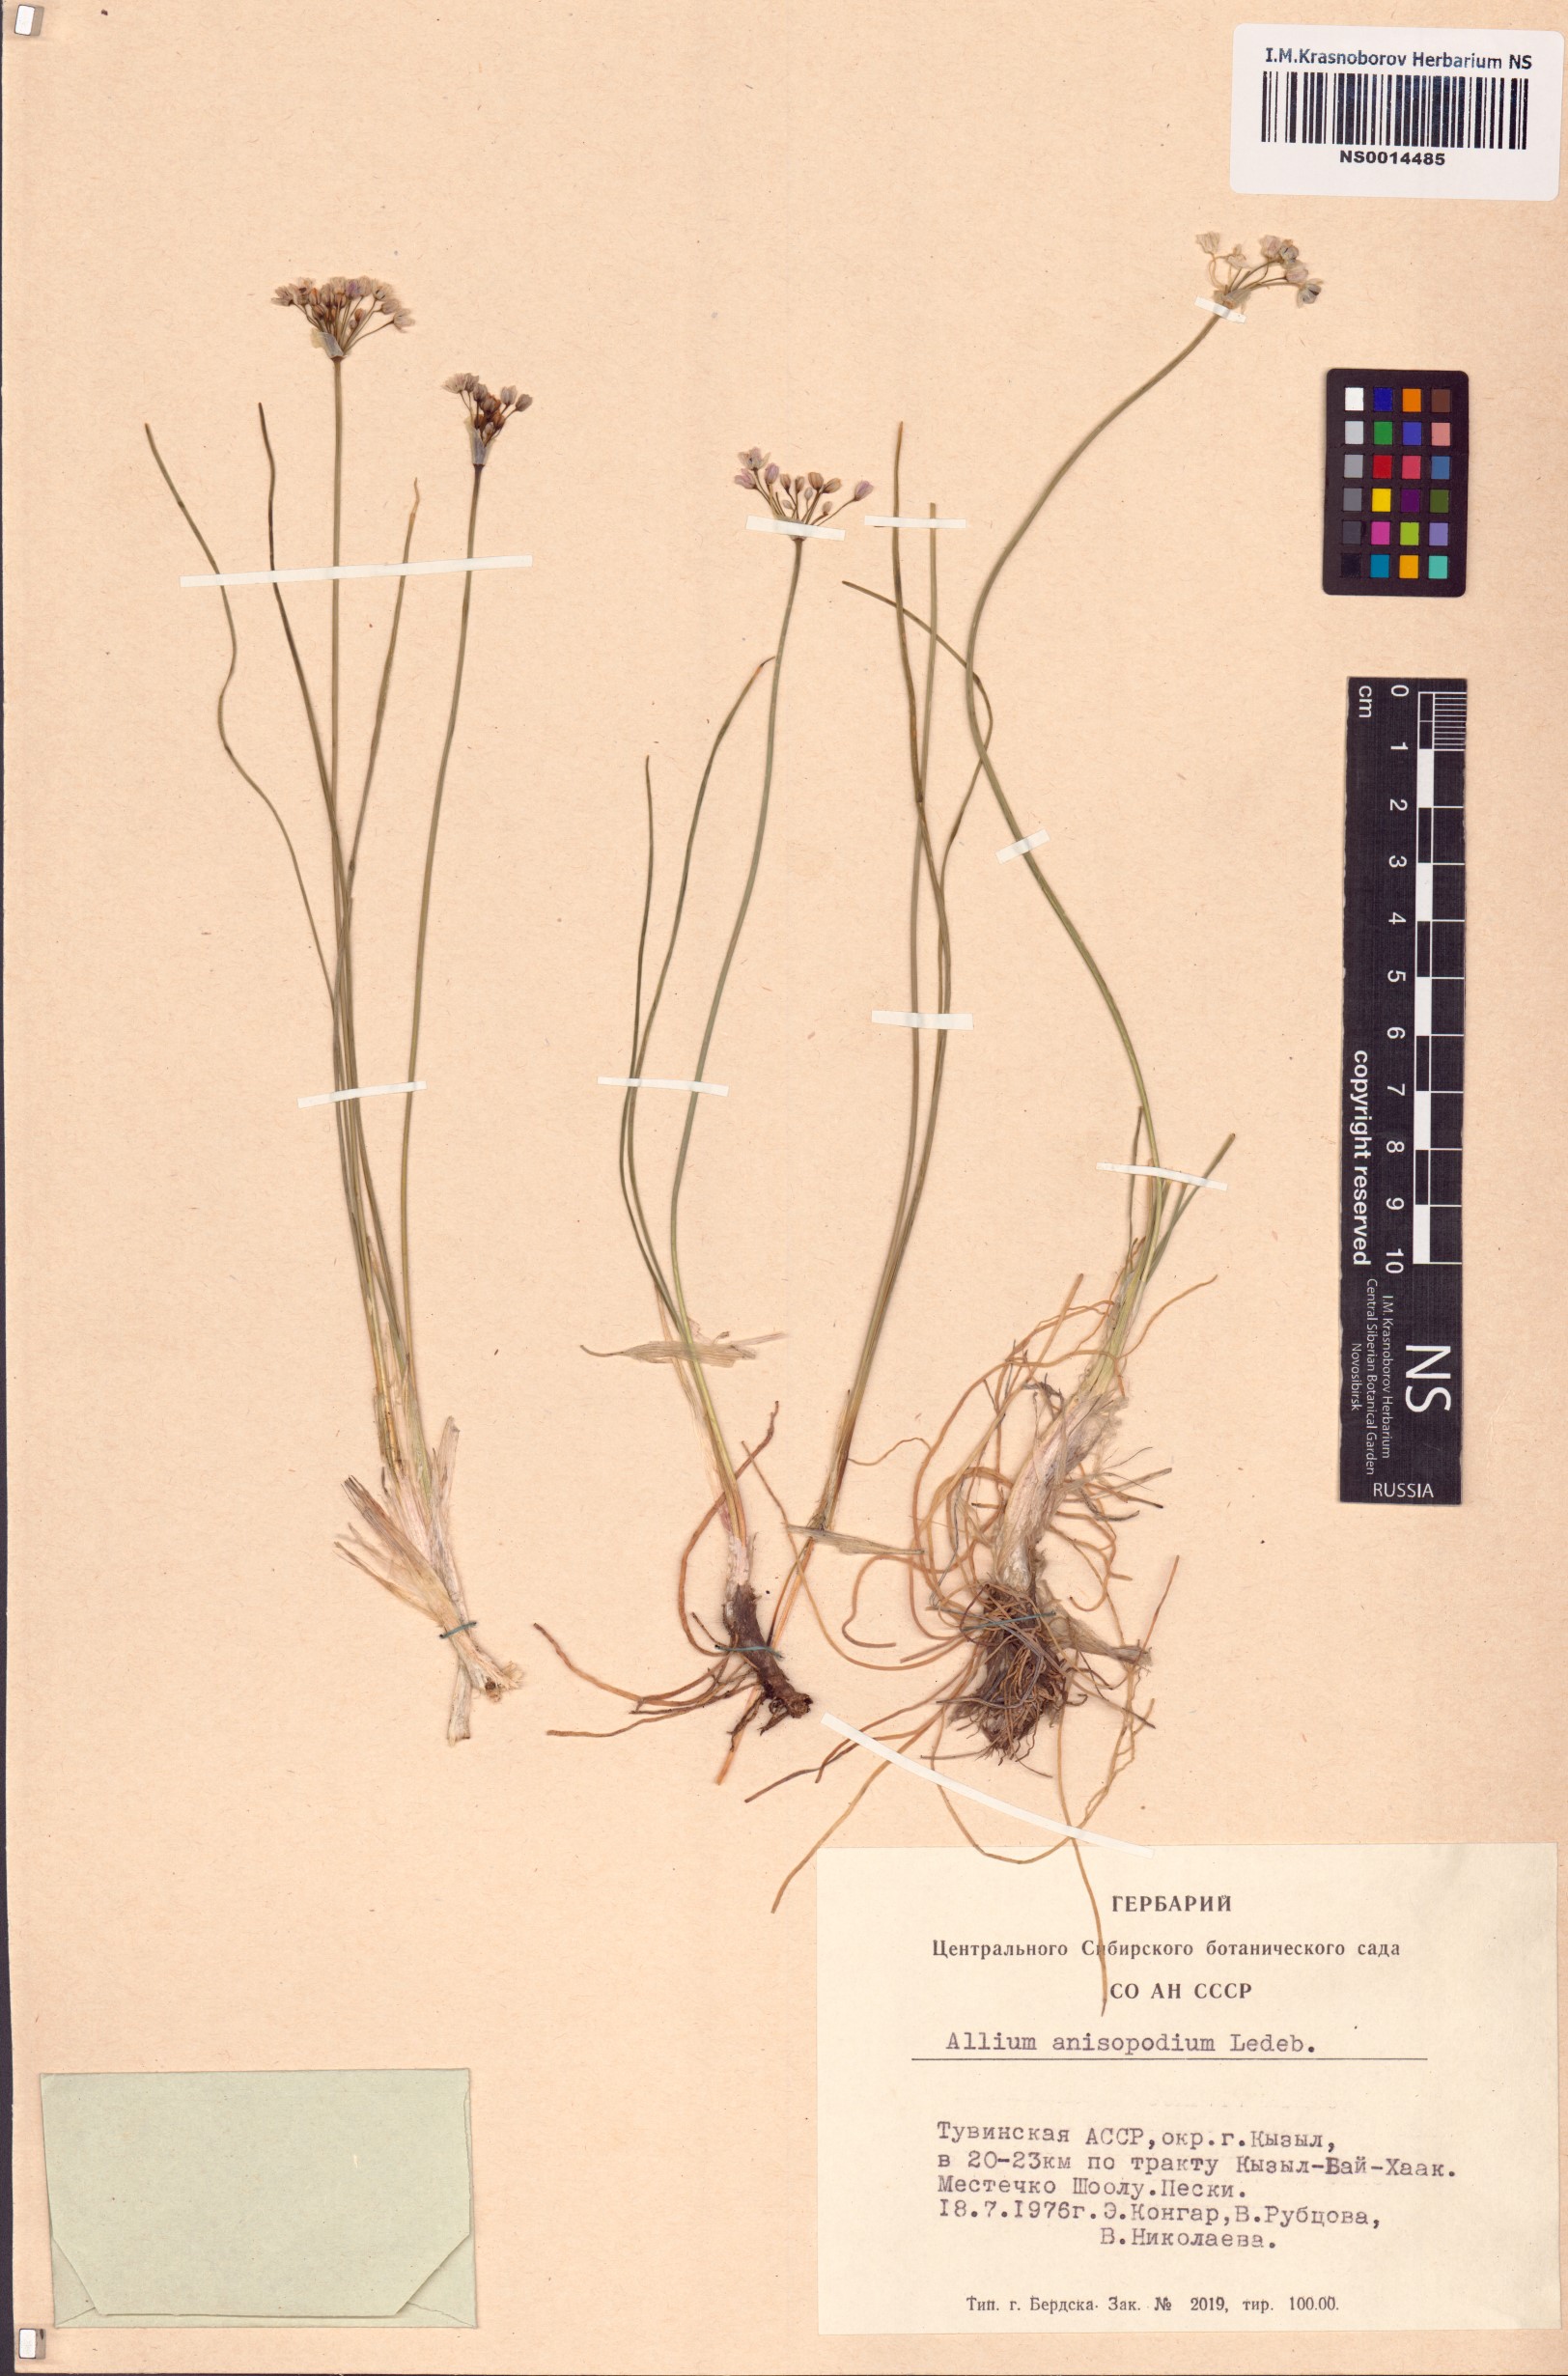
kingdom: Plantae
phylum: Tracheophyta
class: Liliopsida
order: Asparagales
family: Amaryllidaceae
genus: Allium
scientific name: Allium anisopodium
